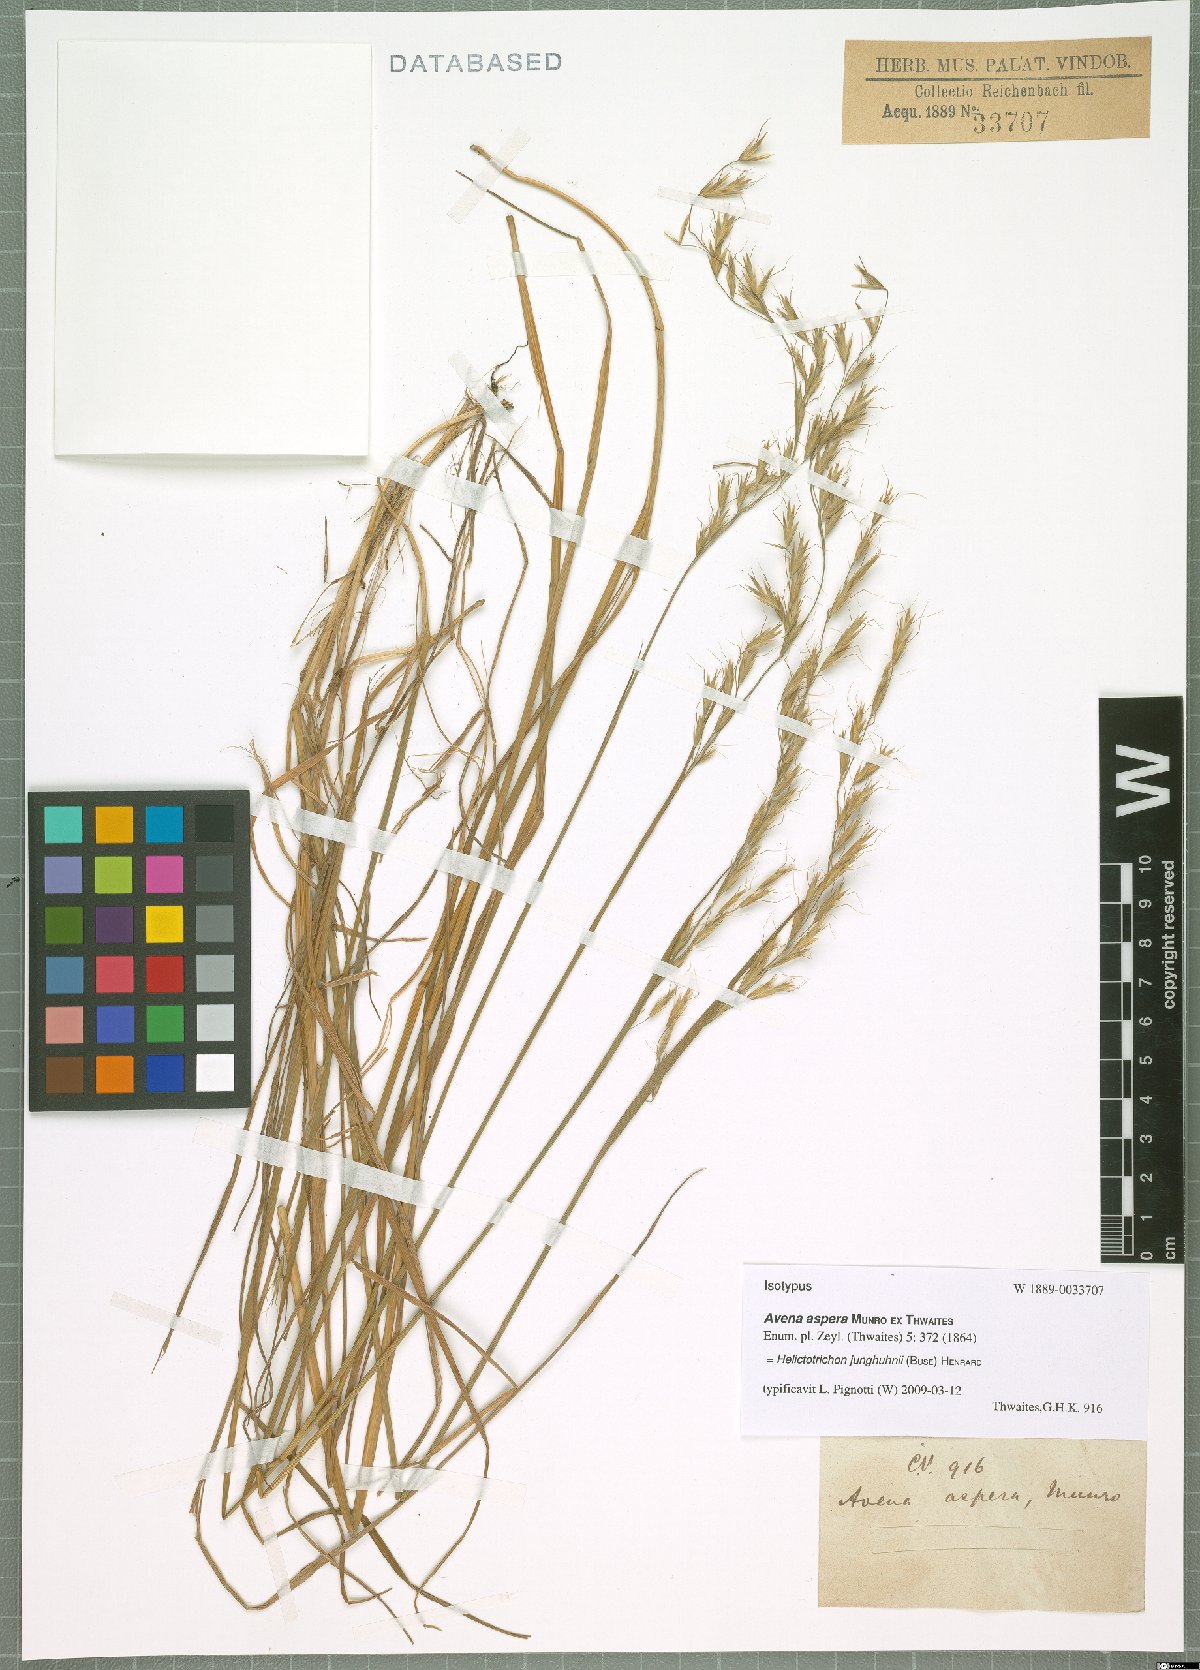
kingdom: Plantae
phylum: Tracheophyta
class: Liliopsida
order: Poales
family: Poaceae
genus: Trisetopsis
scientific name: Trisetopsis junghuhnii
